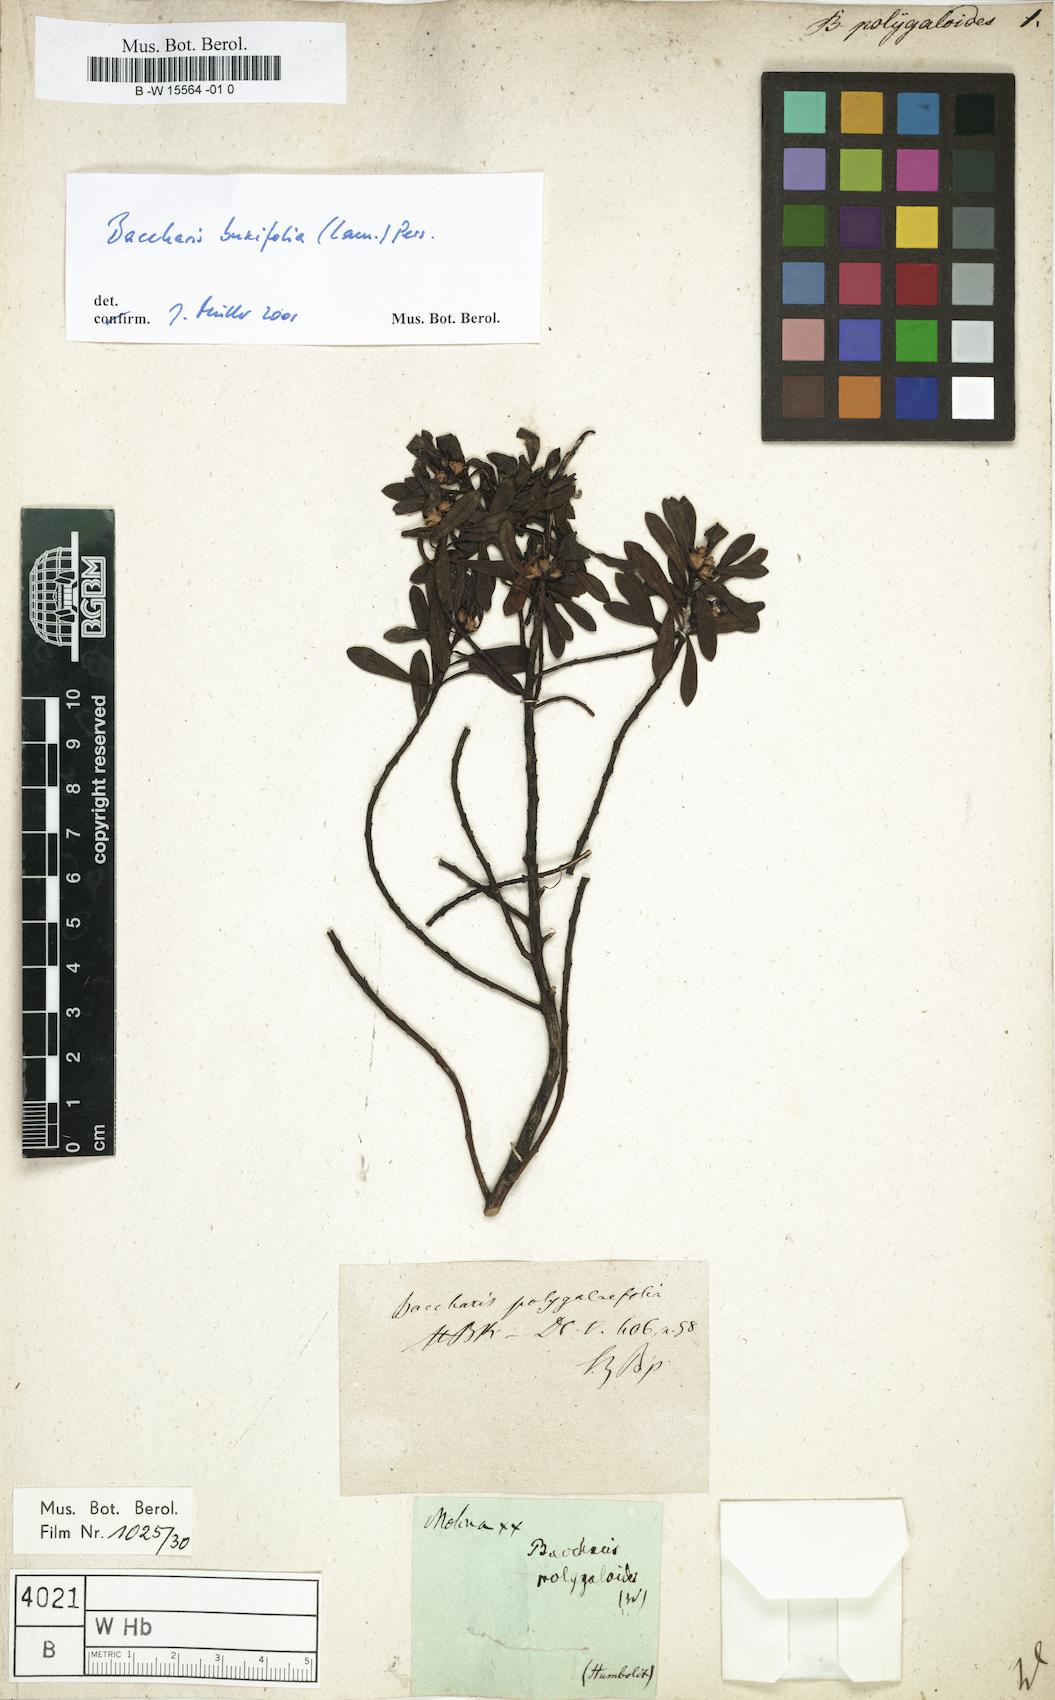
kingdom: Plantae
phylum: Tracheophyta
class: Magnoliopsida
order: Asterales
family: Asteraceae
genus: Baccharis
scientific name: Baccharis
